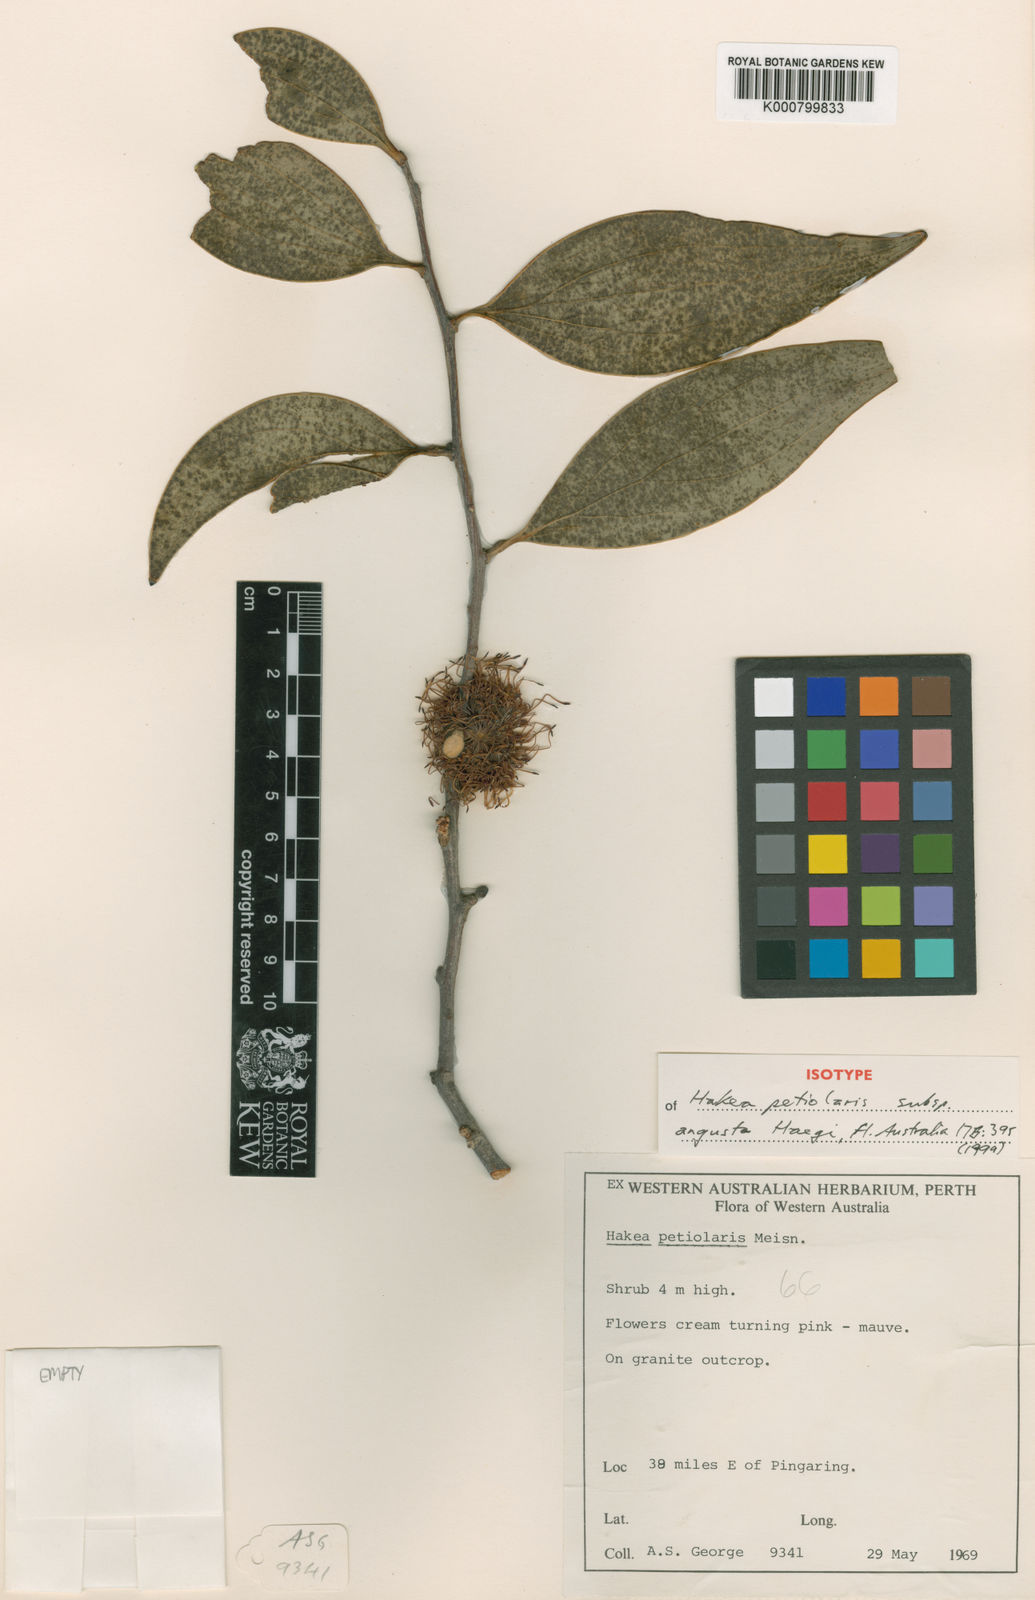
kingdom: Plantae
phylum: Tracheophyta
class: Magnoliopsida
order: Proteales
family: Proteaceae
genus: Hakea
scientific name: Hakea petiolaris
